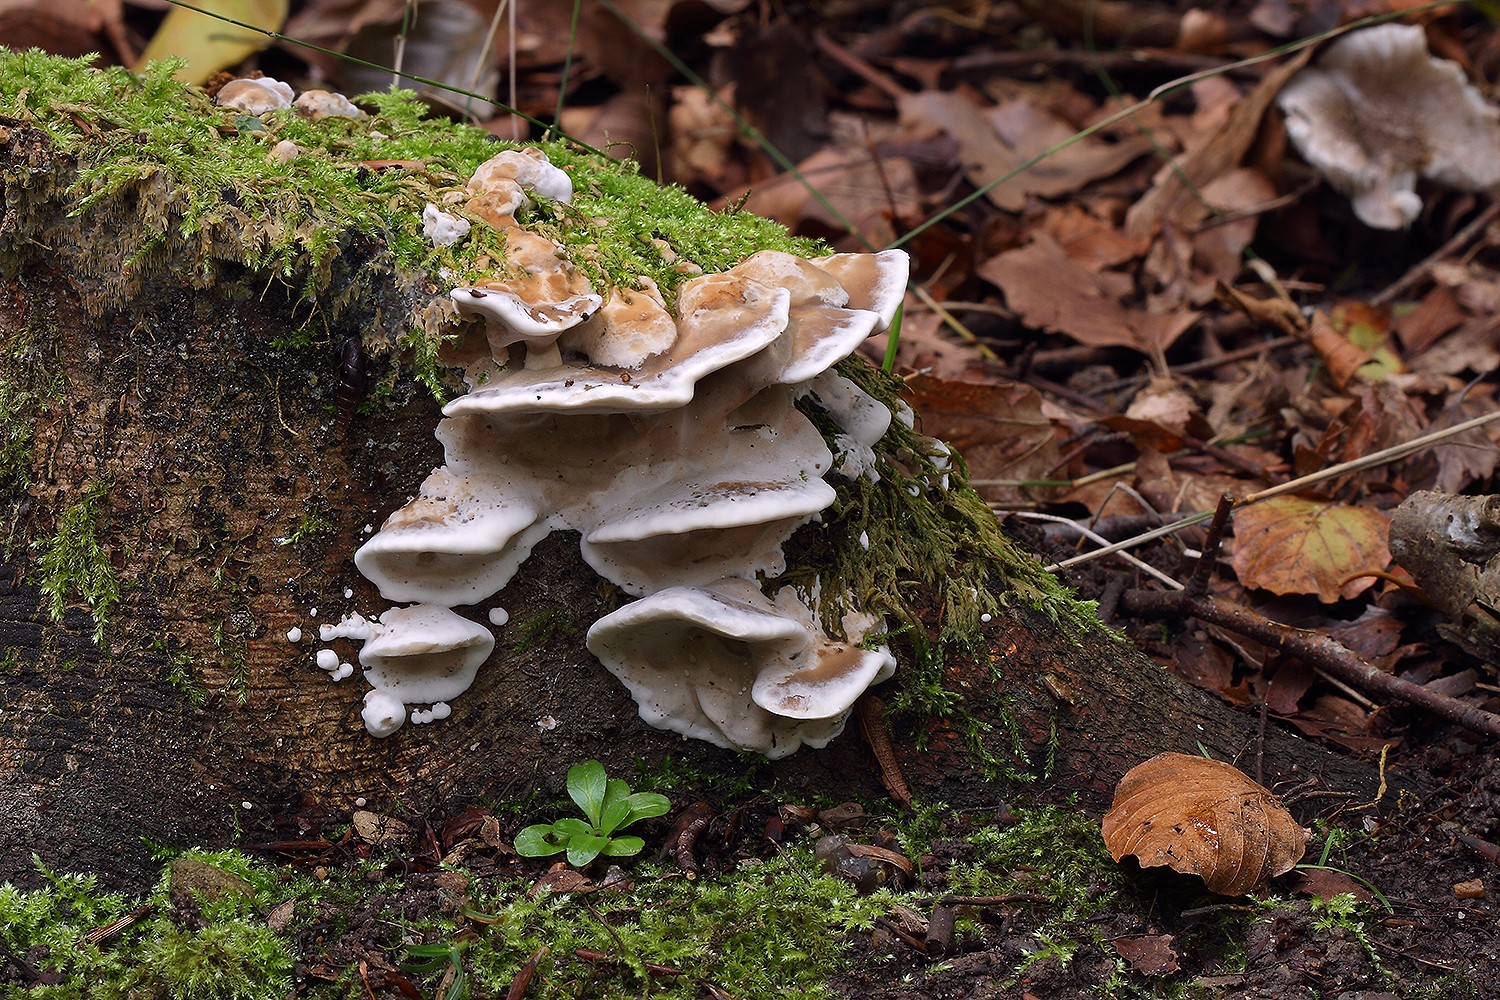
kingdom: Fungi
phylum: Basidiomycota
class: Agaricomycetes
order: Polyporales
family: Phanerochaetaceae
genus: Bjerkandera
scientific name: Bjerkandera fumosa
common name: grågul sodporesvamp
